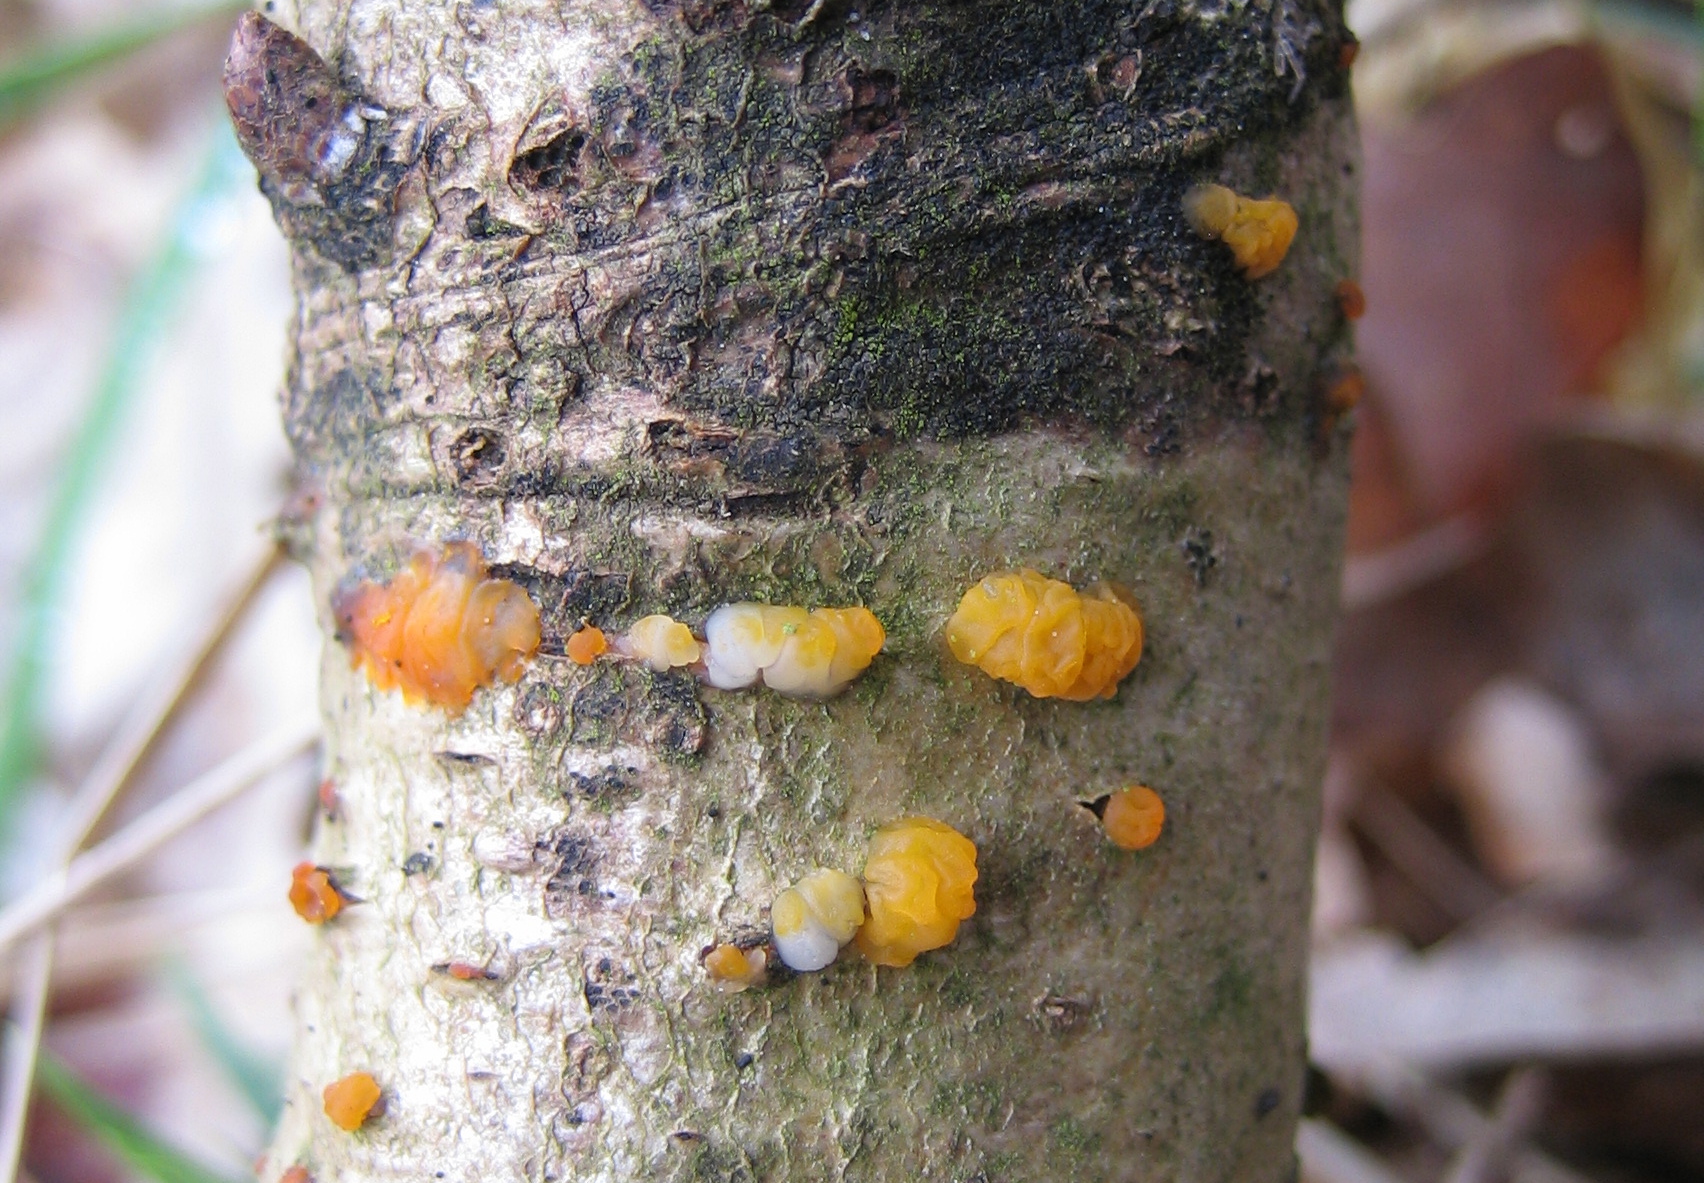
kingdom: Fungi
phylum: Basidiomycota
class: Dacrymycetes
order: Dacrymycetales
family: Dacrymycetaceae
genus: Dacrymyces
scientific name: Dacrymyces lacrymalis
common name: rynket tåresvamp
